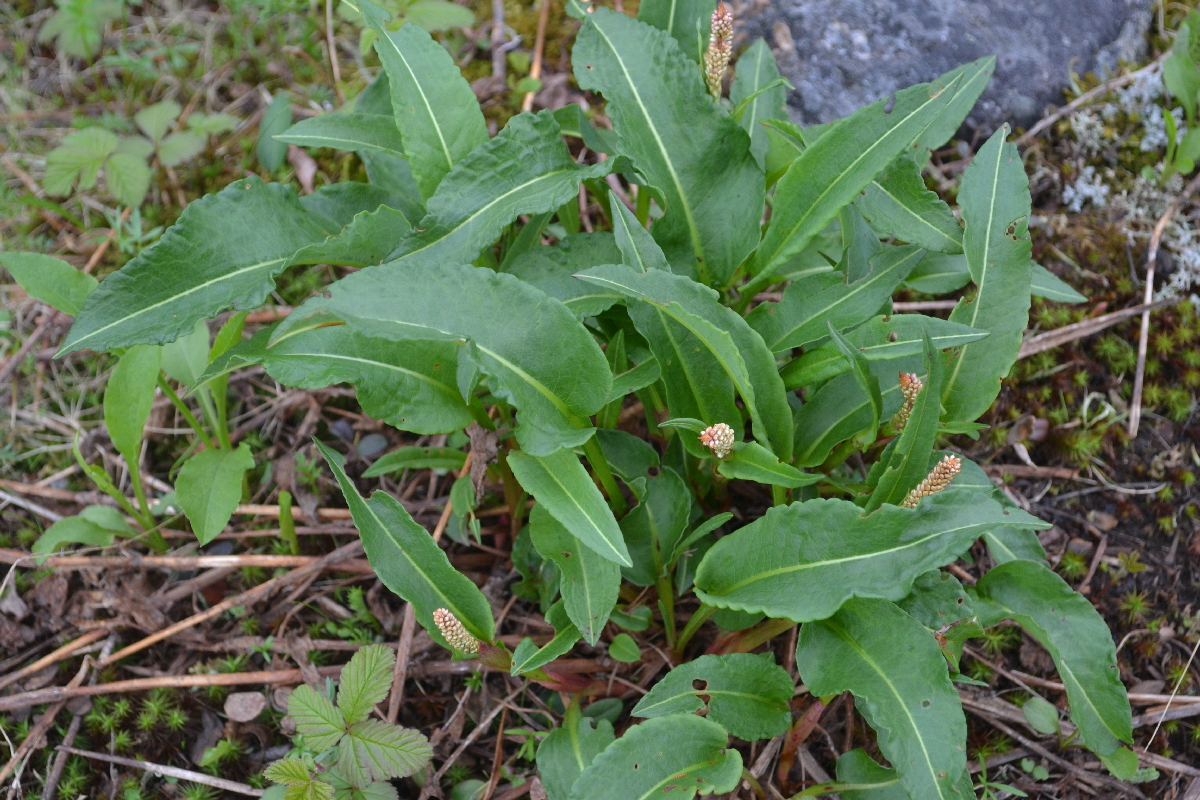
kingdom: Plantae
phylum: Tracheophyta
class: Magnoliopsida
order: Caryophyllales
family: Polygonaceae
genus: Bistorta
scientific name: Bistorta officinalis
